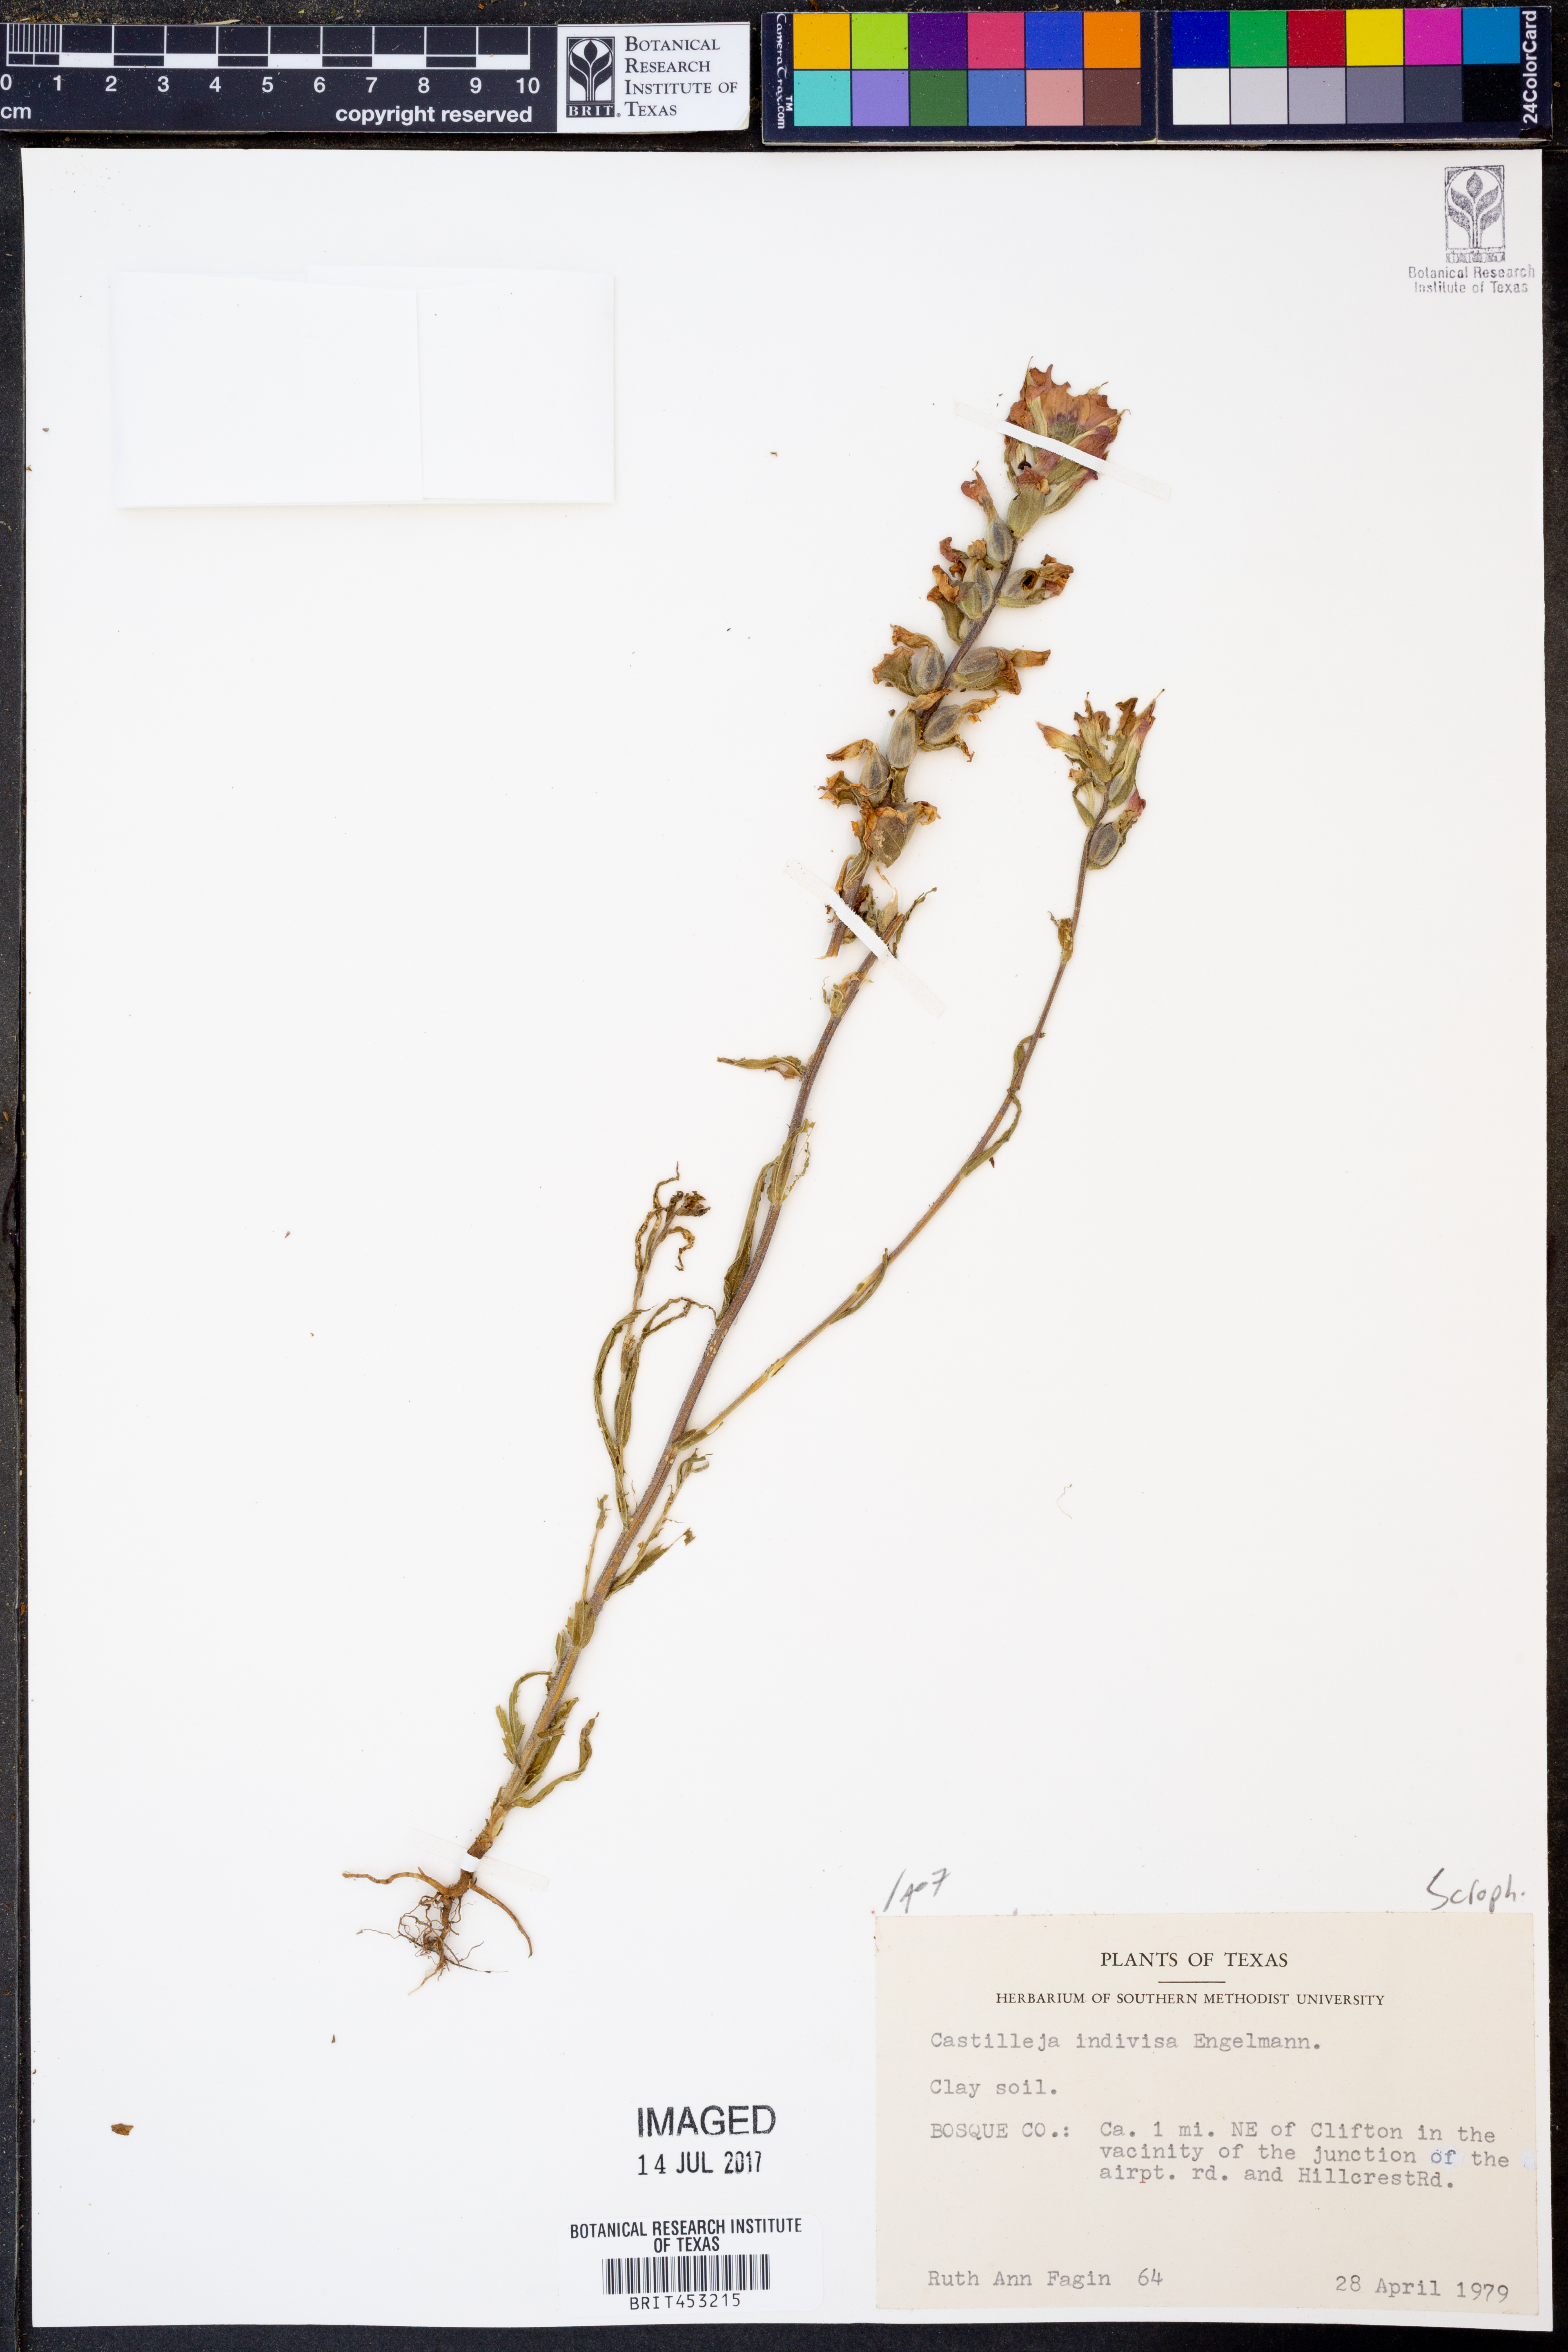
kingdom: Plantae
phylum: Tracheophyta
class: Magnoliopsida
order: Lamiales
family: Orobanchaceae
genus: Castilleja
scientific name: Castilleja indivisa
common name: Texas paintbrush
